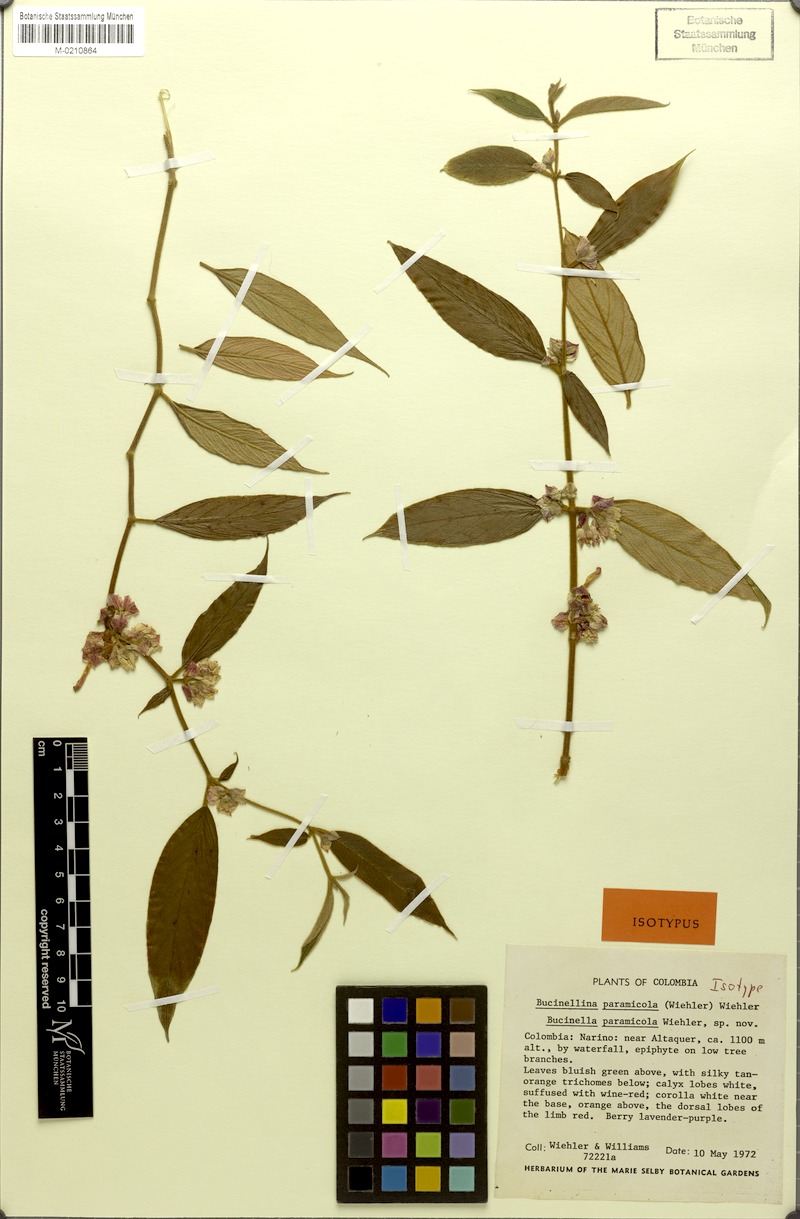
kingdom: Plantae
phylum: Tracheophyta
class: Magnoliopsida
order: Lamiales
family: Gesneriaceae
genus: Columnea
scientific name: Columnea paramicola
